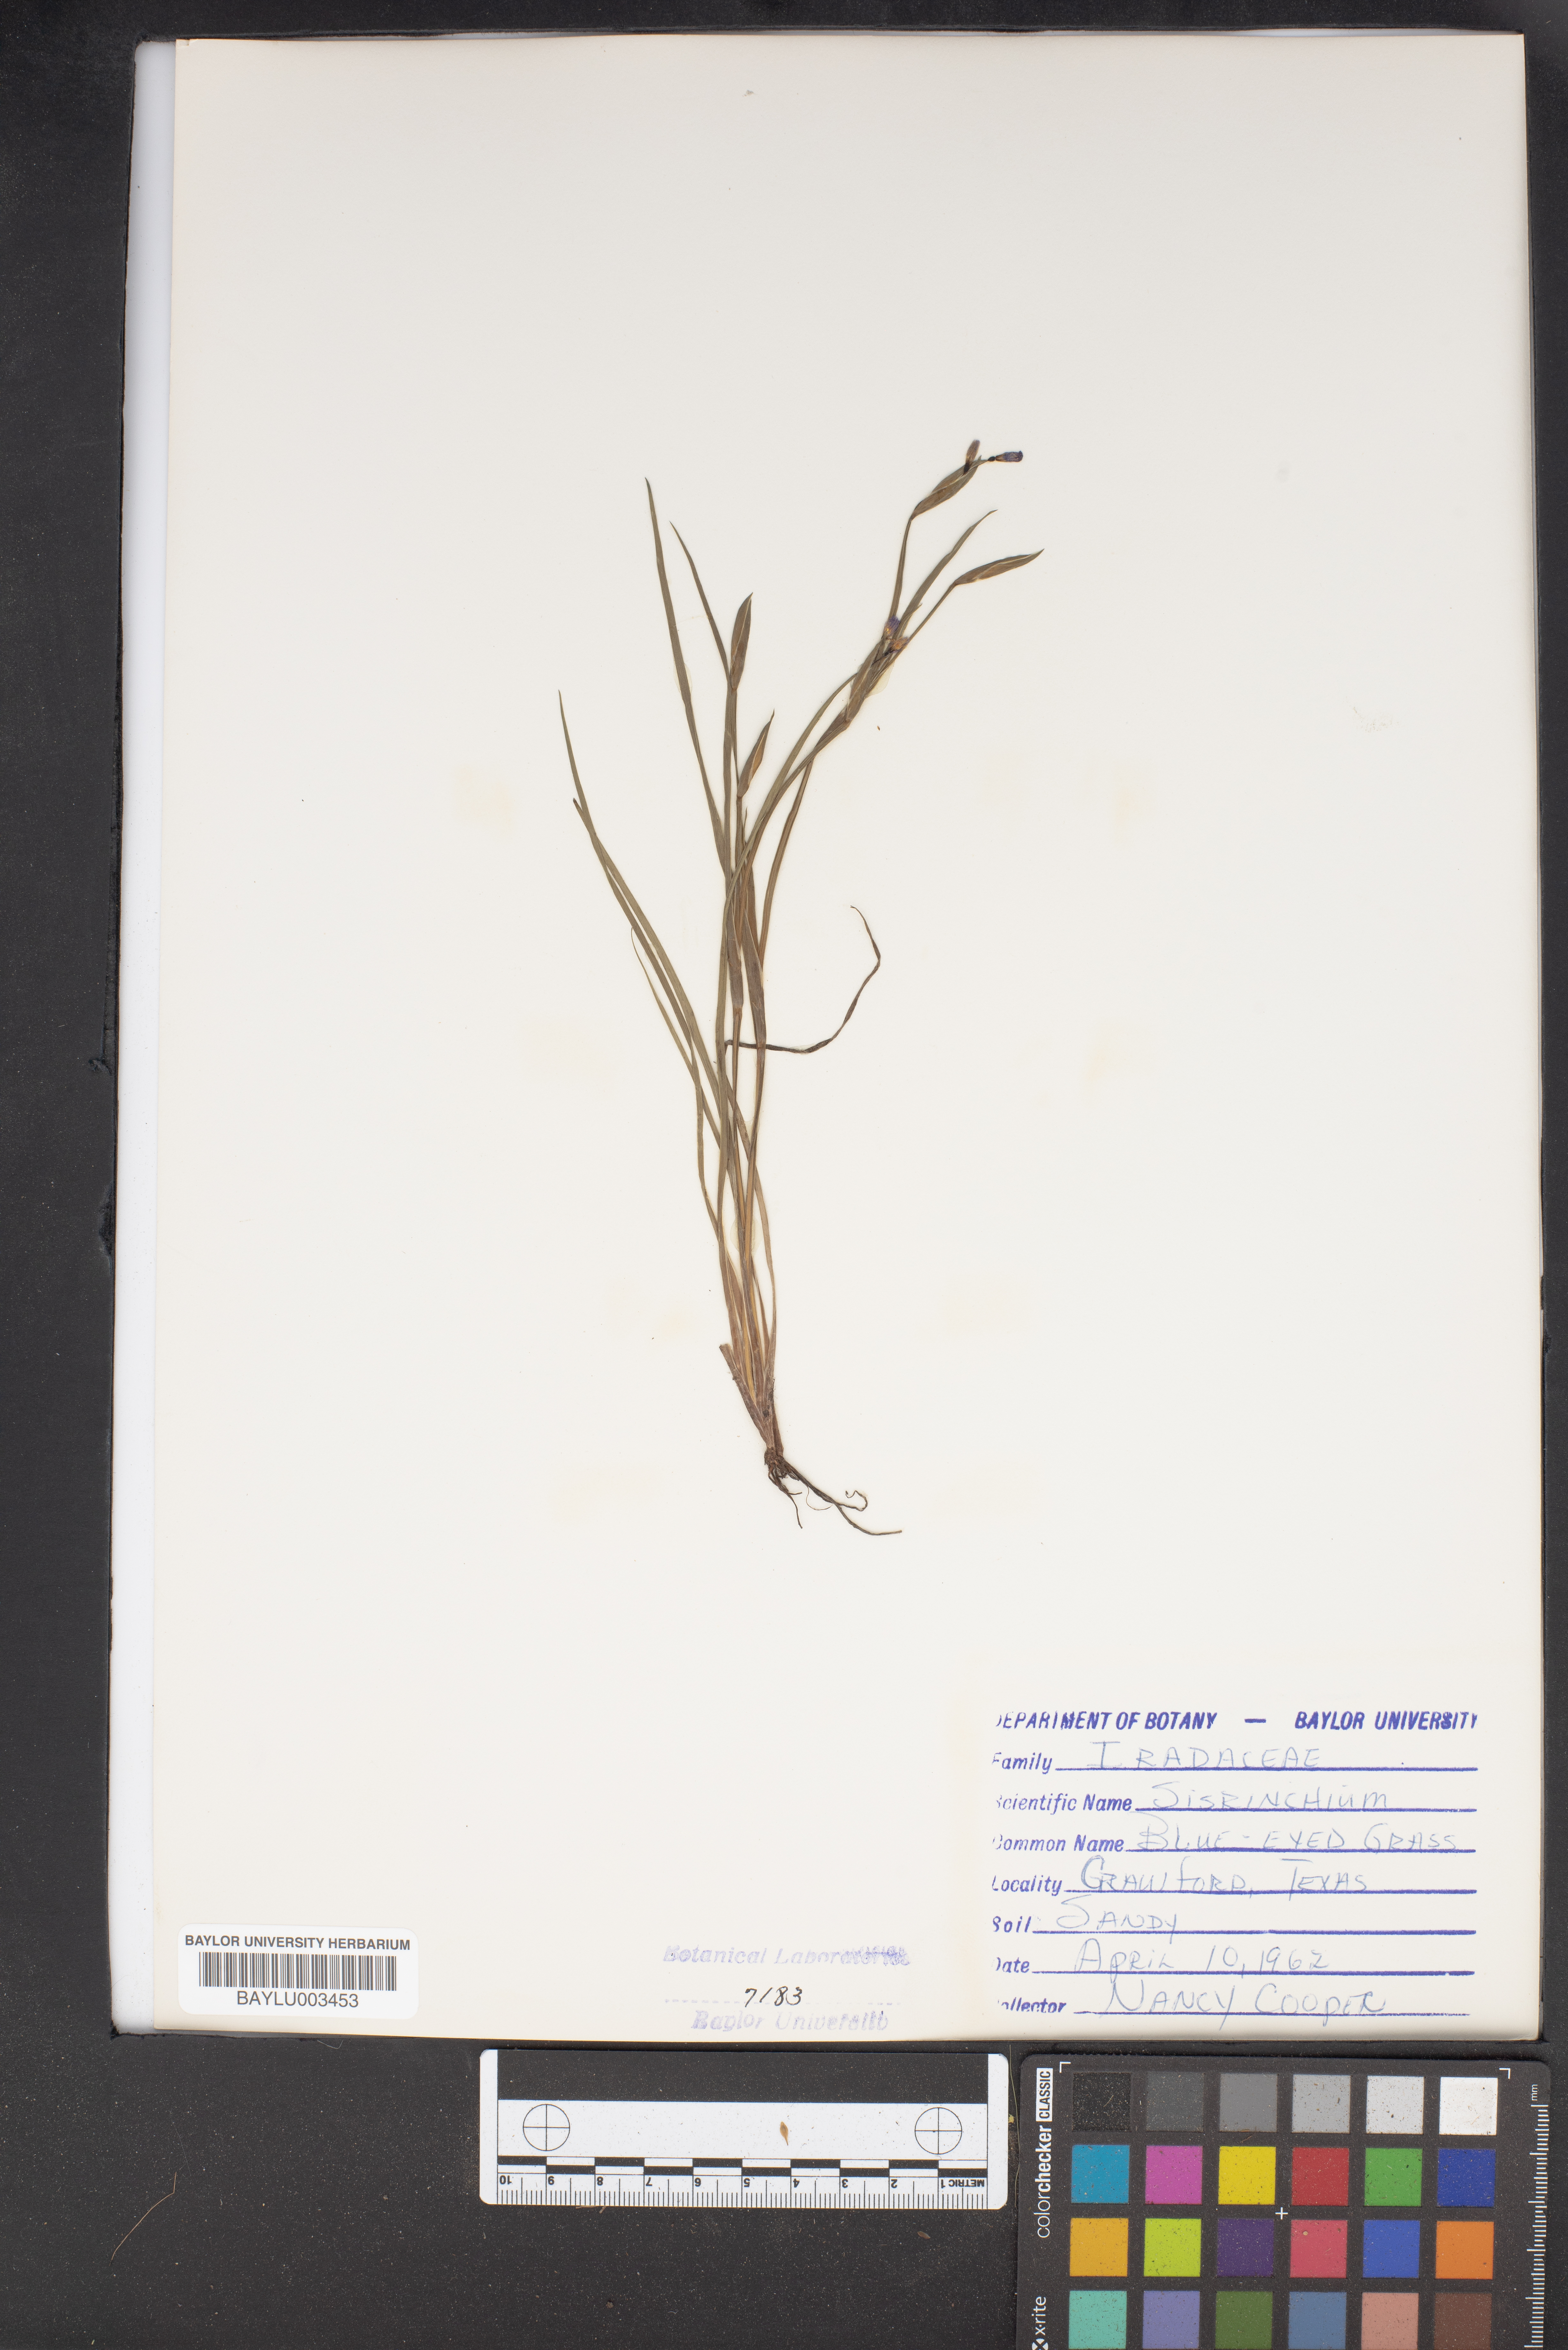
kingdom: Plantae
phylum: Tracheophyta
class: Liliopsida
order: Asparagales
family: Iridaceae
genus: Sisyrinchium
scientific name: Sisyrinchium
